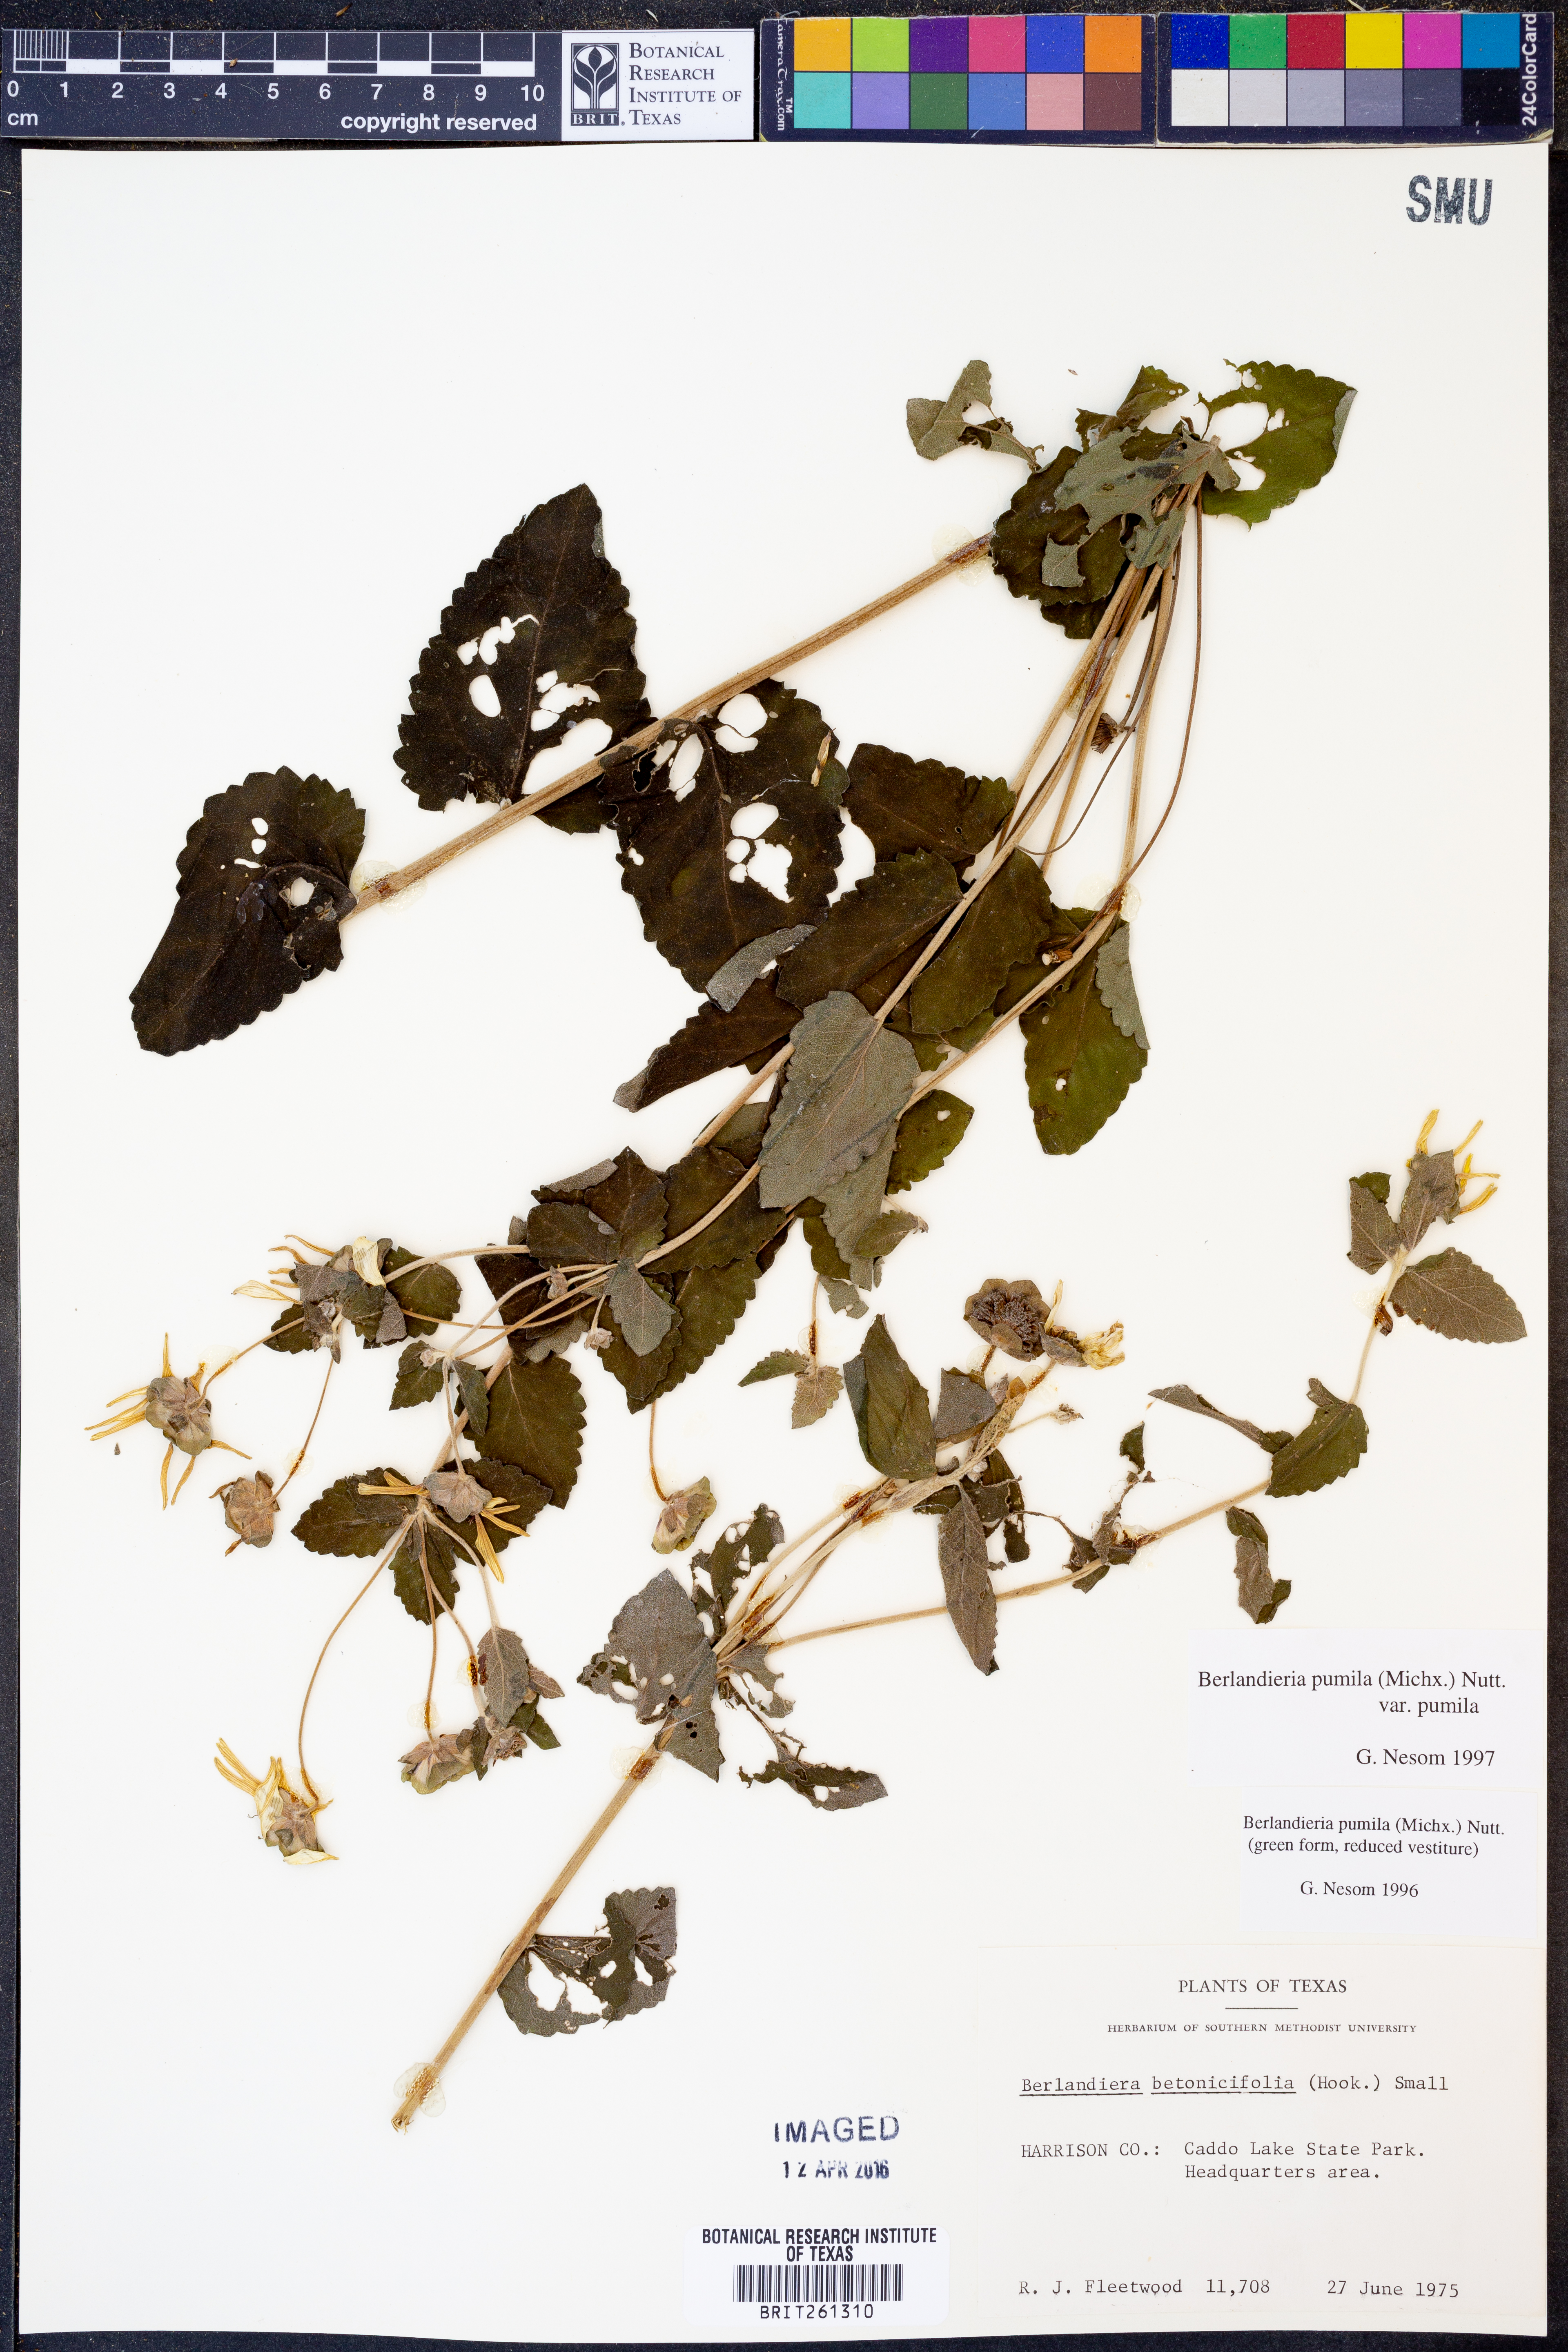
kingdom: Plantae
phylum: Tracheophyta
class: Magnoliopsida
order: Asterales
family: Asteraceae
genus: Berlandiera
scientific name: Berlandiera pumila
